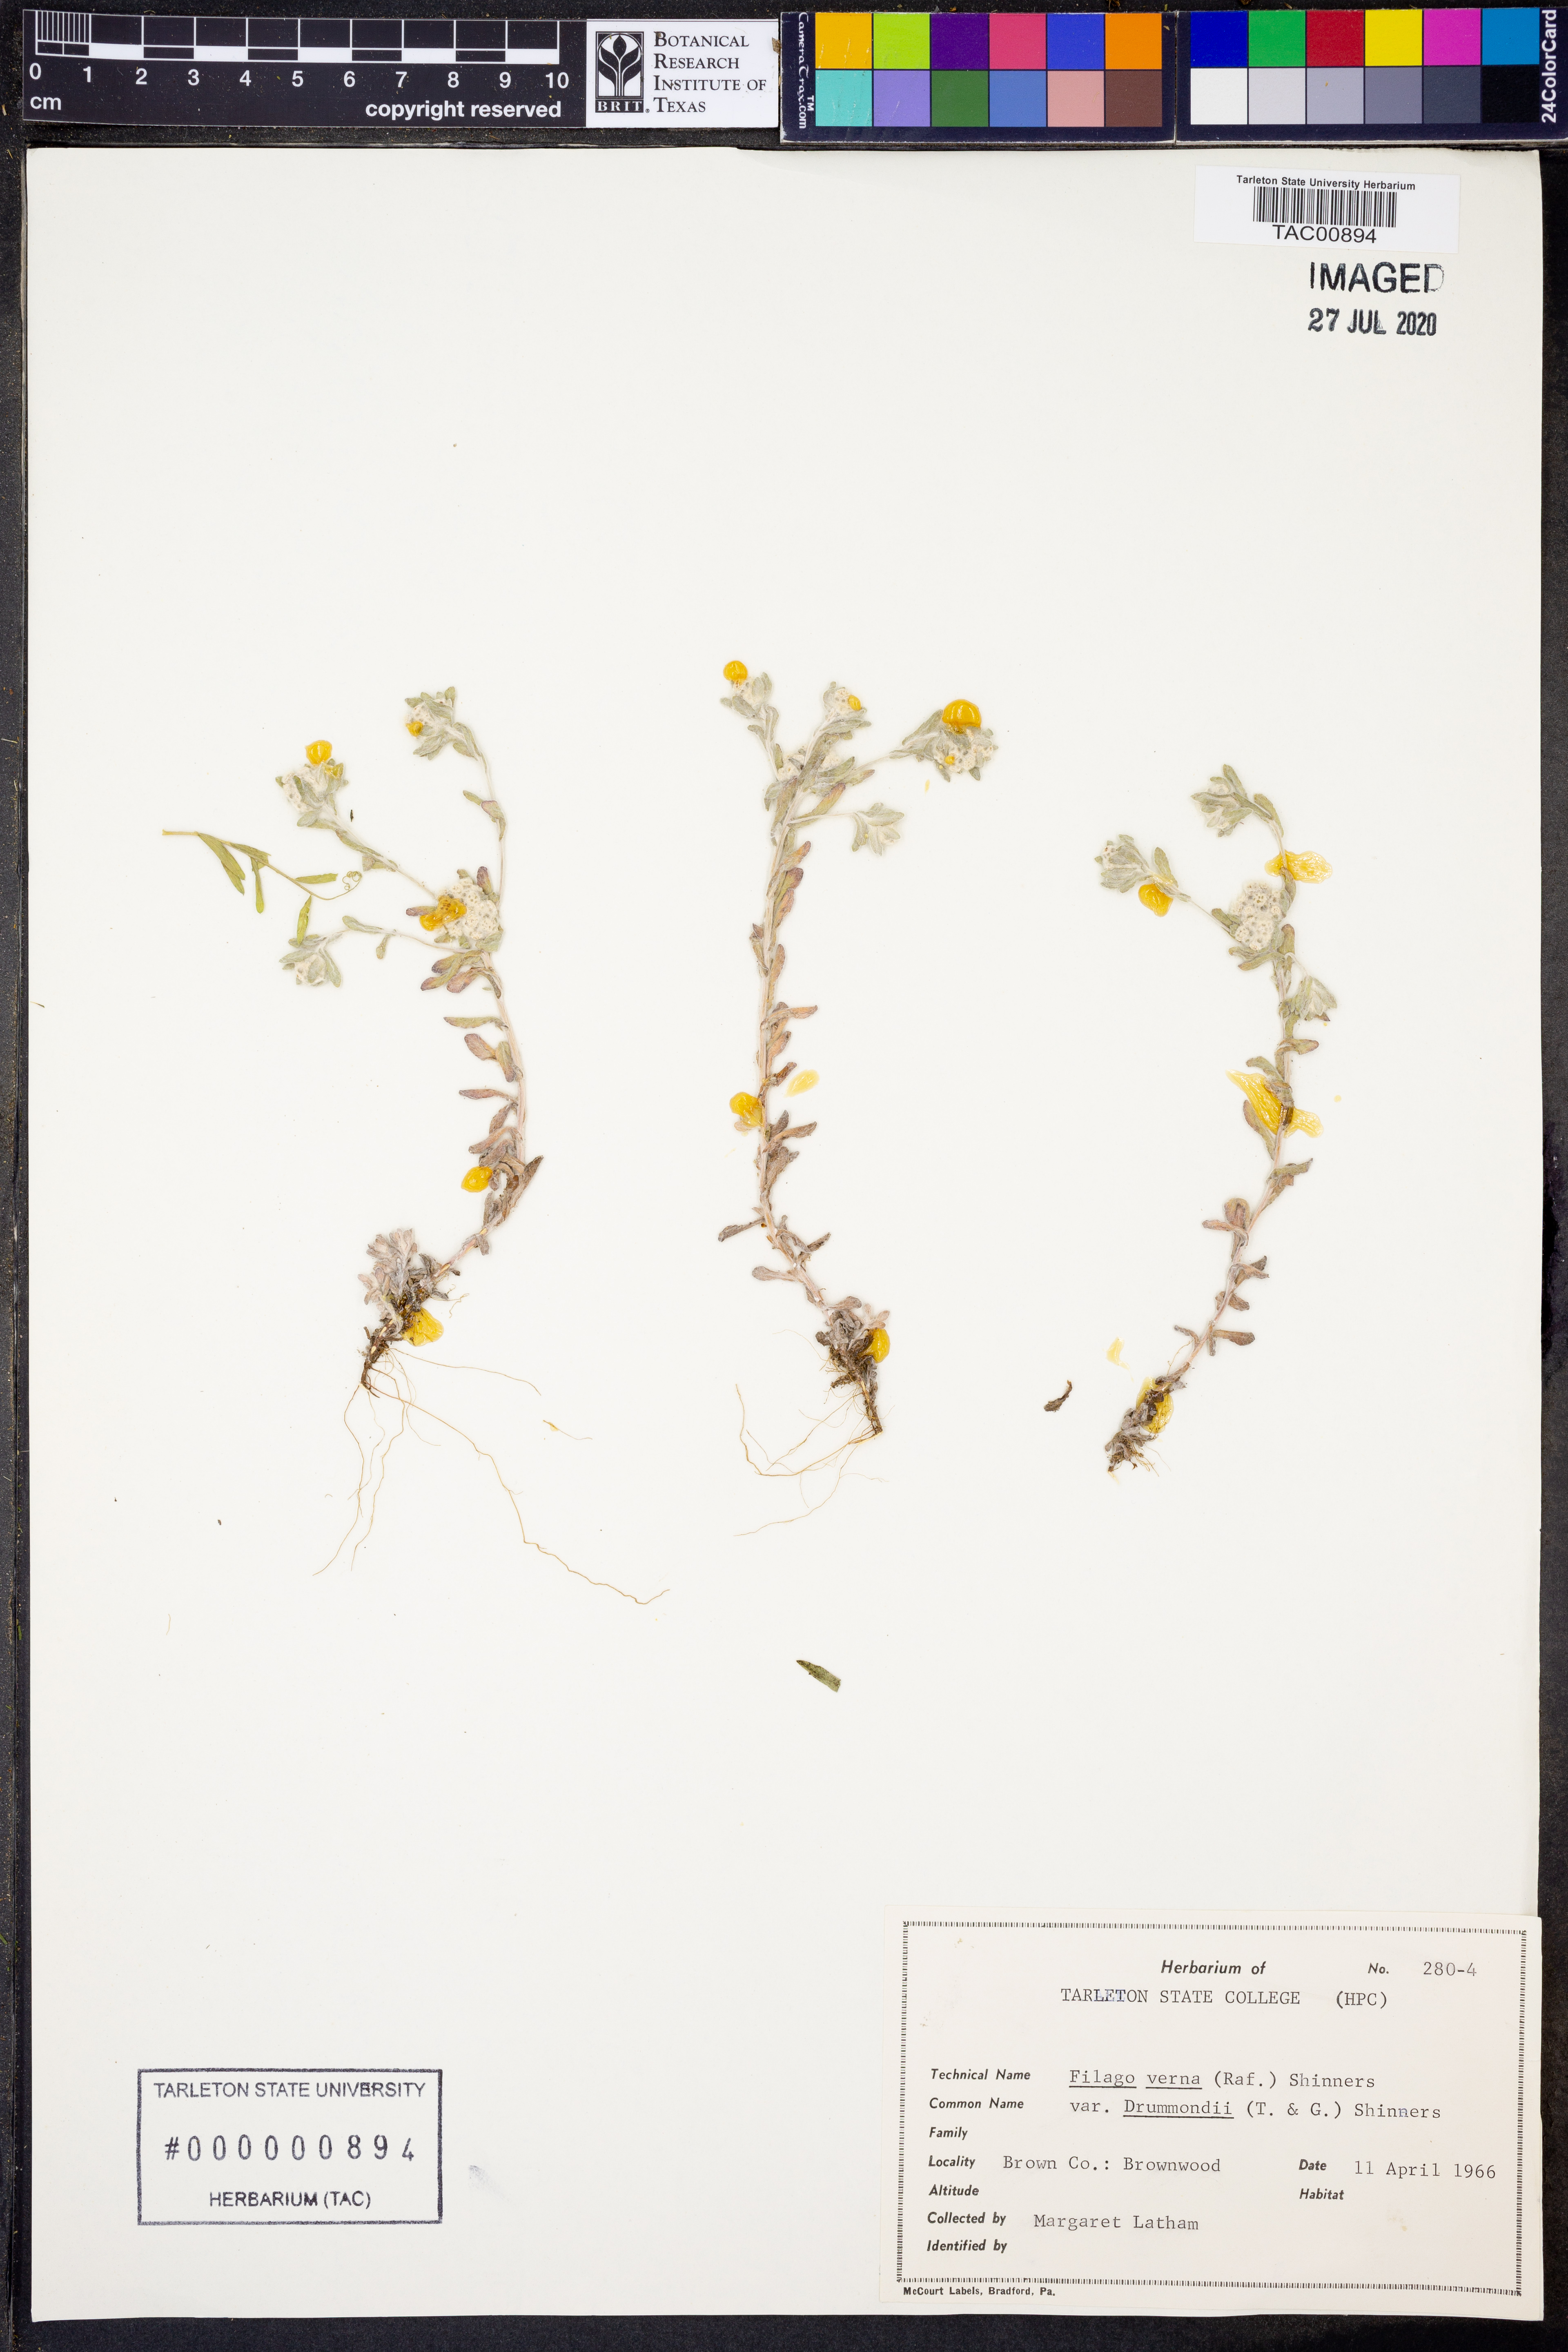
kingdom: Plantae
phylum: Tracheophyta
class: Magnoliopsida
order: Asterales
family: Asteraceae
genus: Diaperia
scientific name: Diaperia verna
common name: Many-stem rabbit-tobacco
